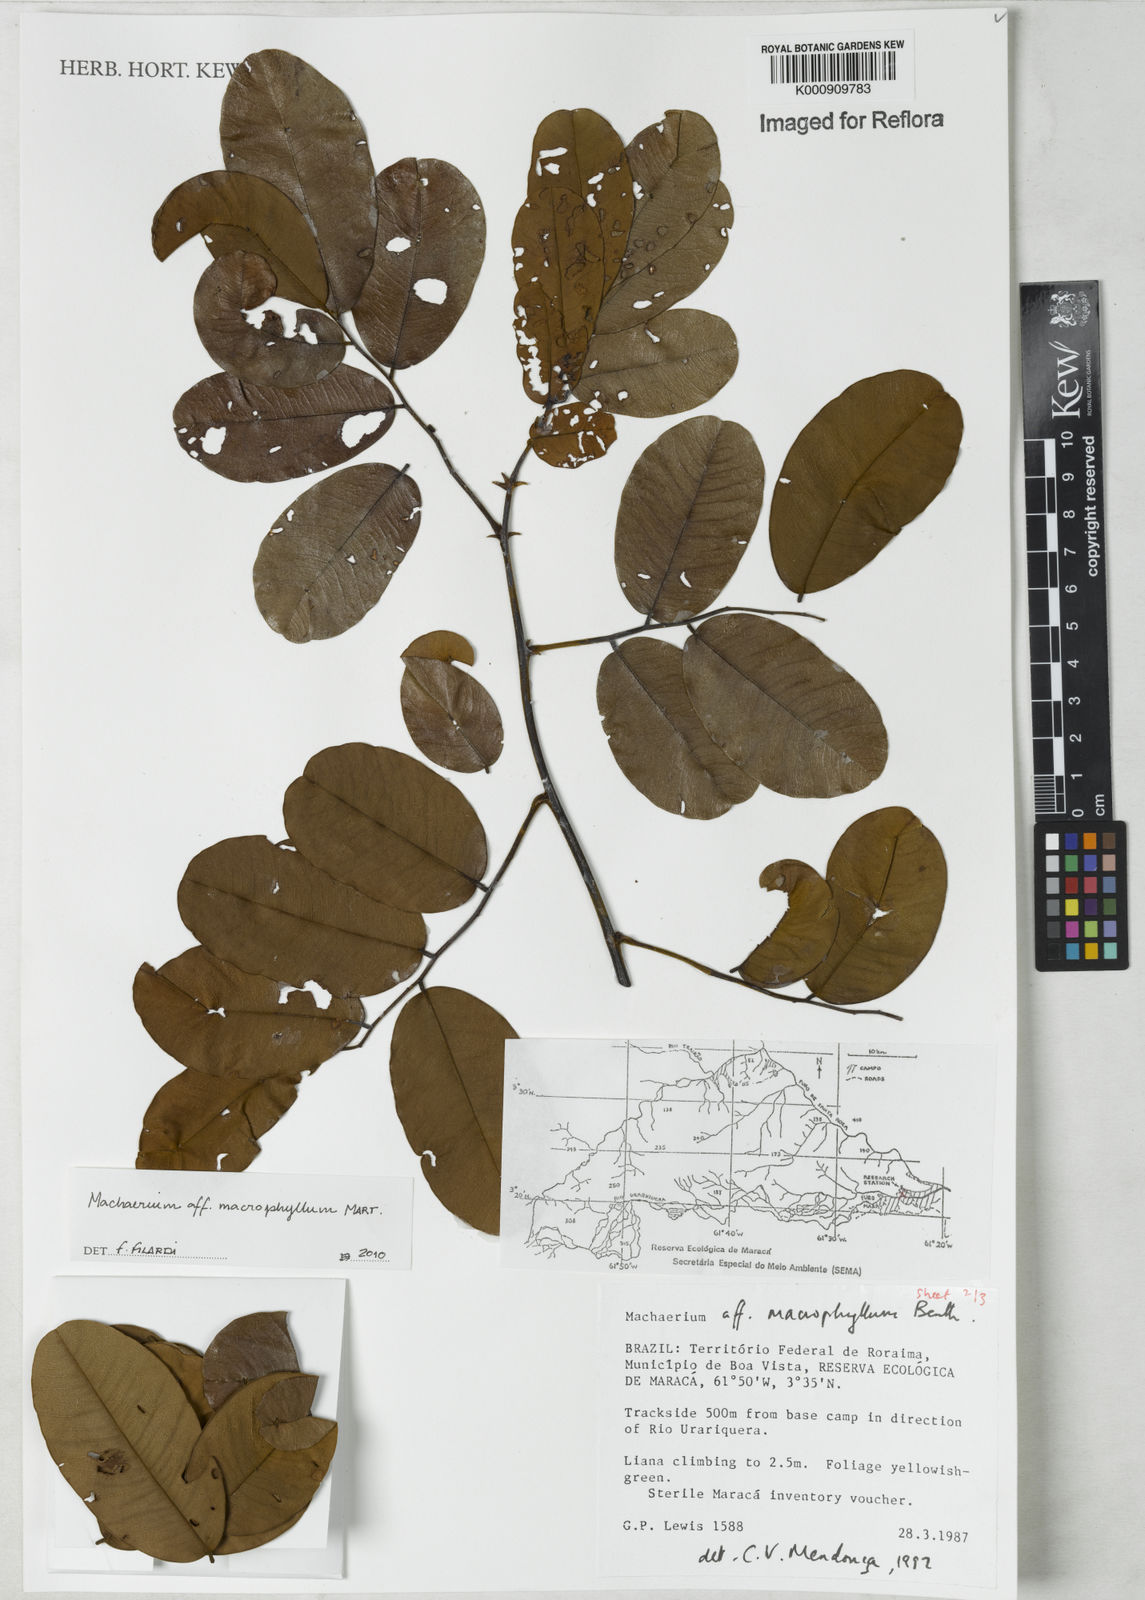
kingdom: Plantae
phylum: Tracheophyta
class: Magnoliopsida
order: Fabales
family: Fabaceae
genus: Machaerium
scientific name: Machaerium macrophyllum
